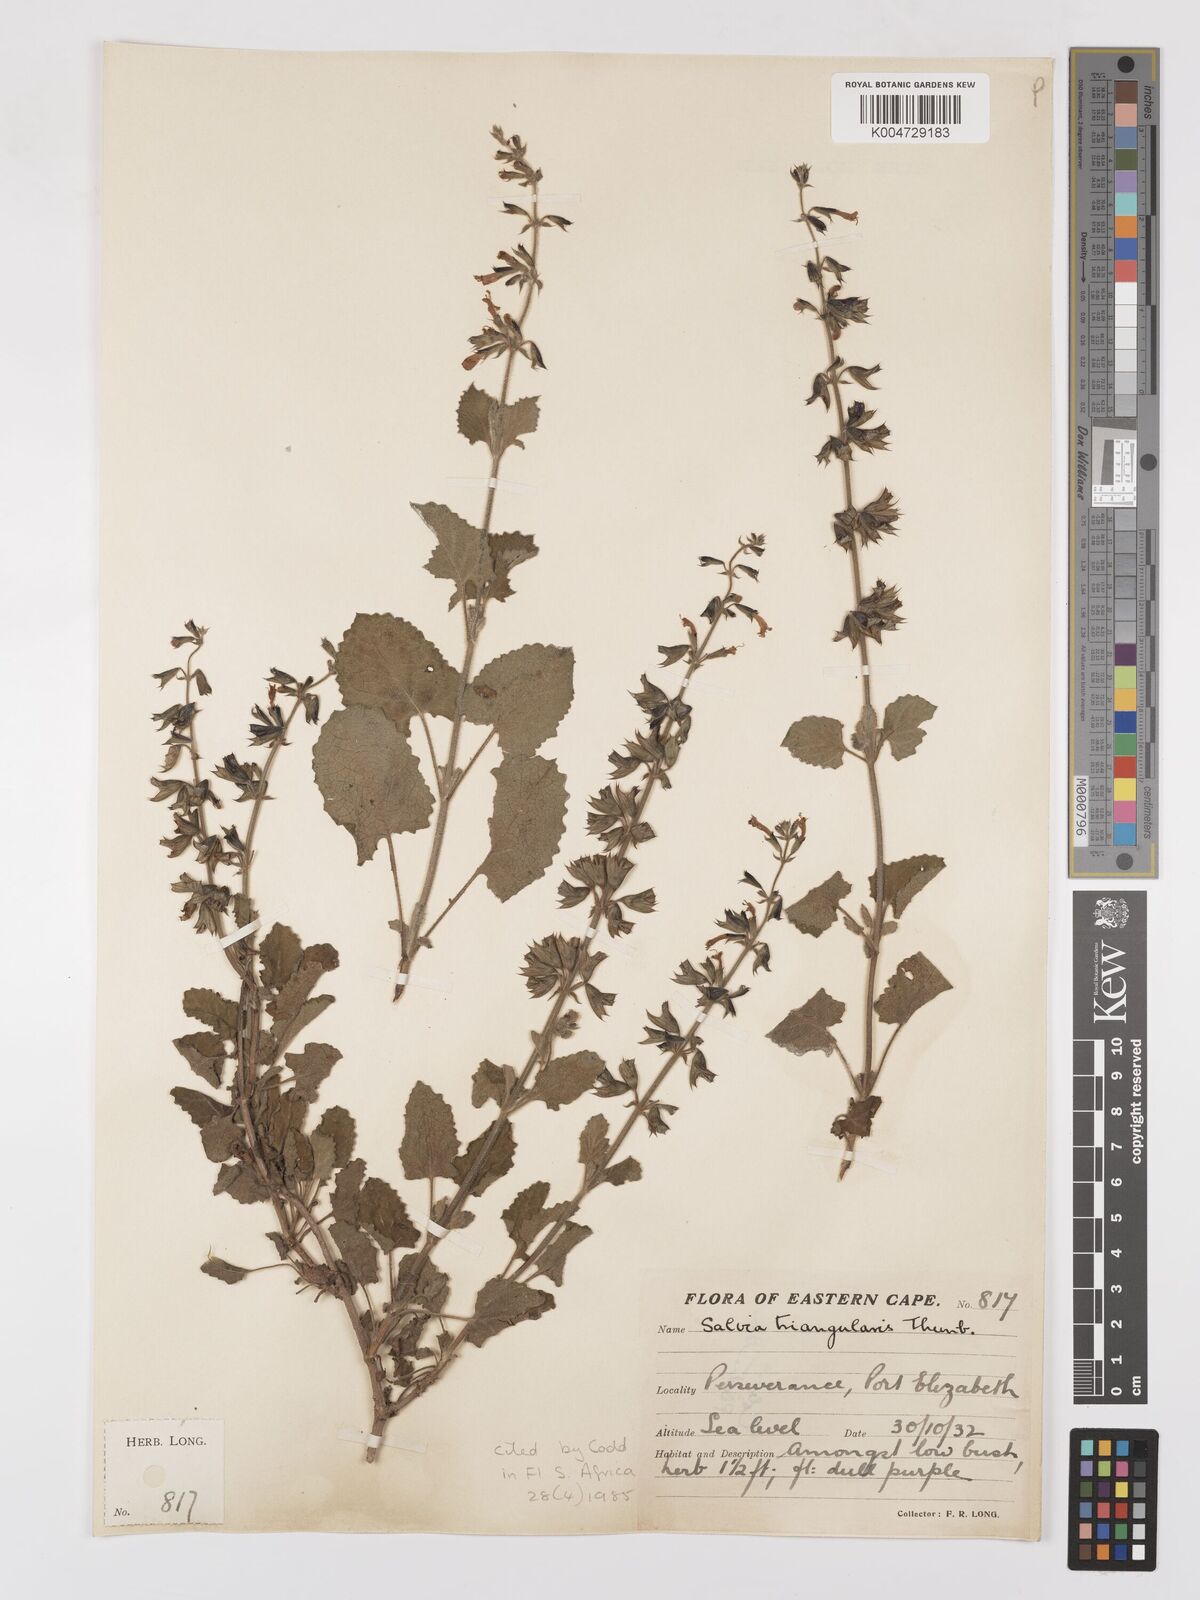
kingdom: Plantae
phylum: Tracheophyta
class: Magnoliopsida
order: Lamiales
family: Lamiaceae
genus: Salvia
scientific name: Salvia triangularis
